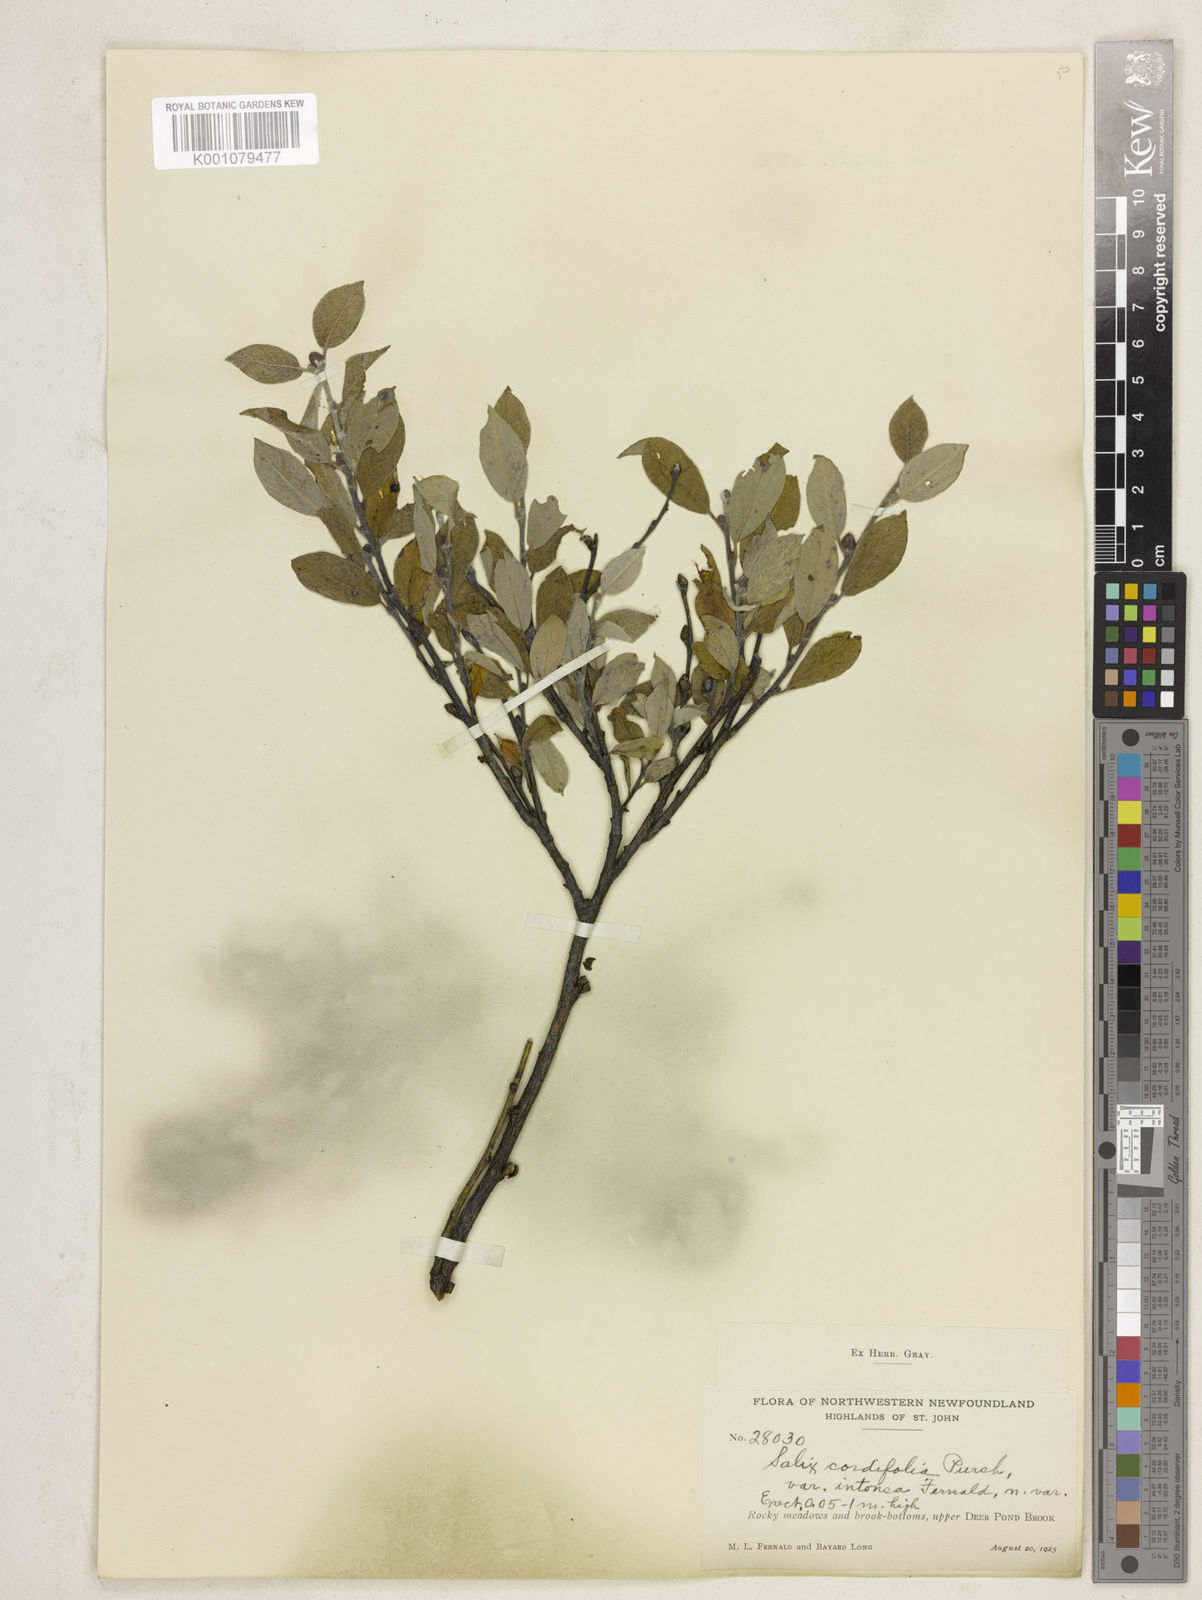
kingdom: Plantae
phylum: Tracheophyta
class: Magnoliopsida
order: Malpighiales
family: Salicaceae
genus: Salix
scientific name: Salix glauca
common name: Glaucous willow
